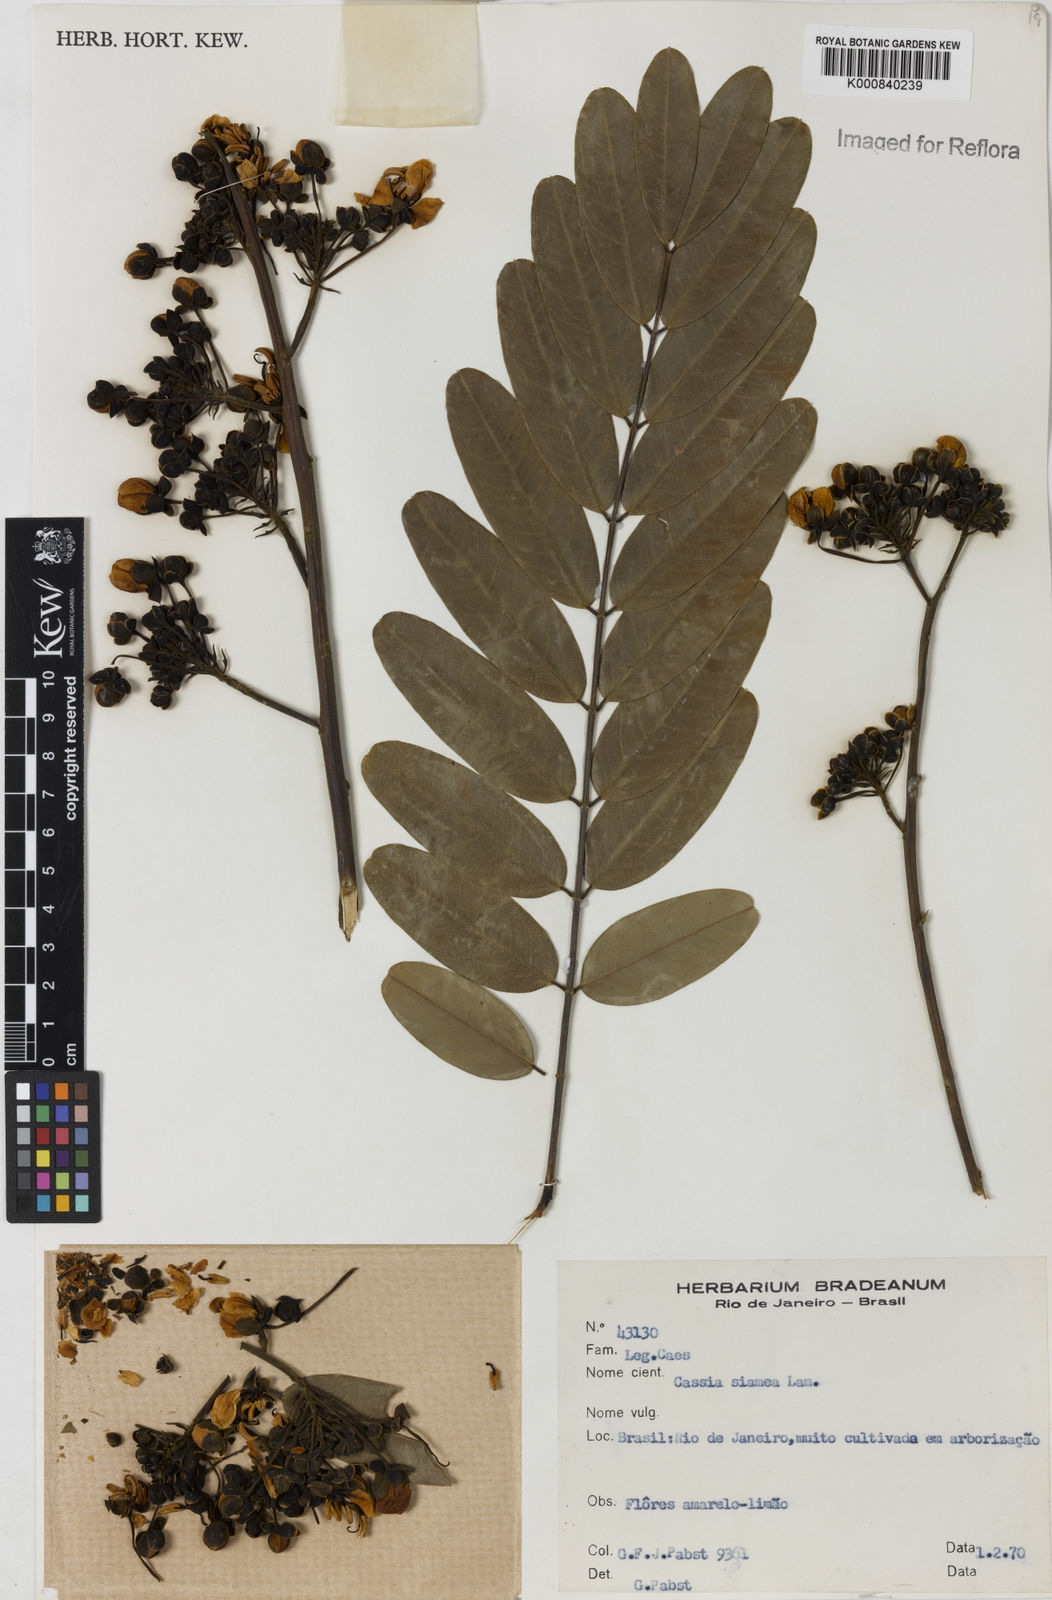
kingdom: Plantae
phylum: Tracheophyta
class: Magnoliopsida
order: Fabales
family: Fabaceae
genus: Senna
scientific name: Senna siamea
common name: Siamese cassia
